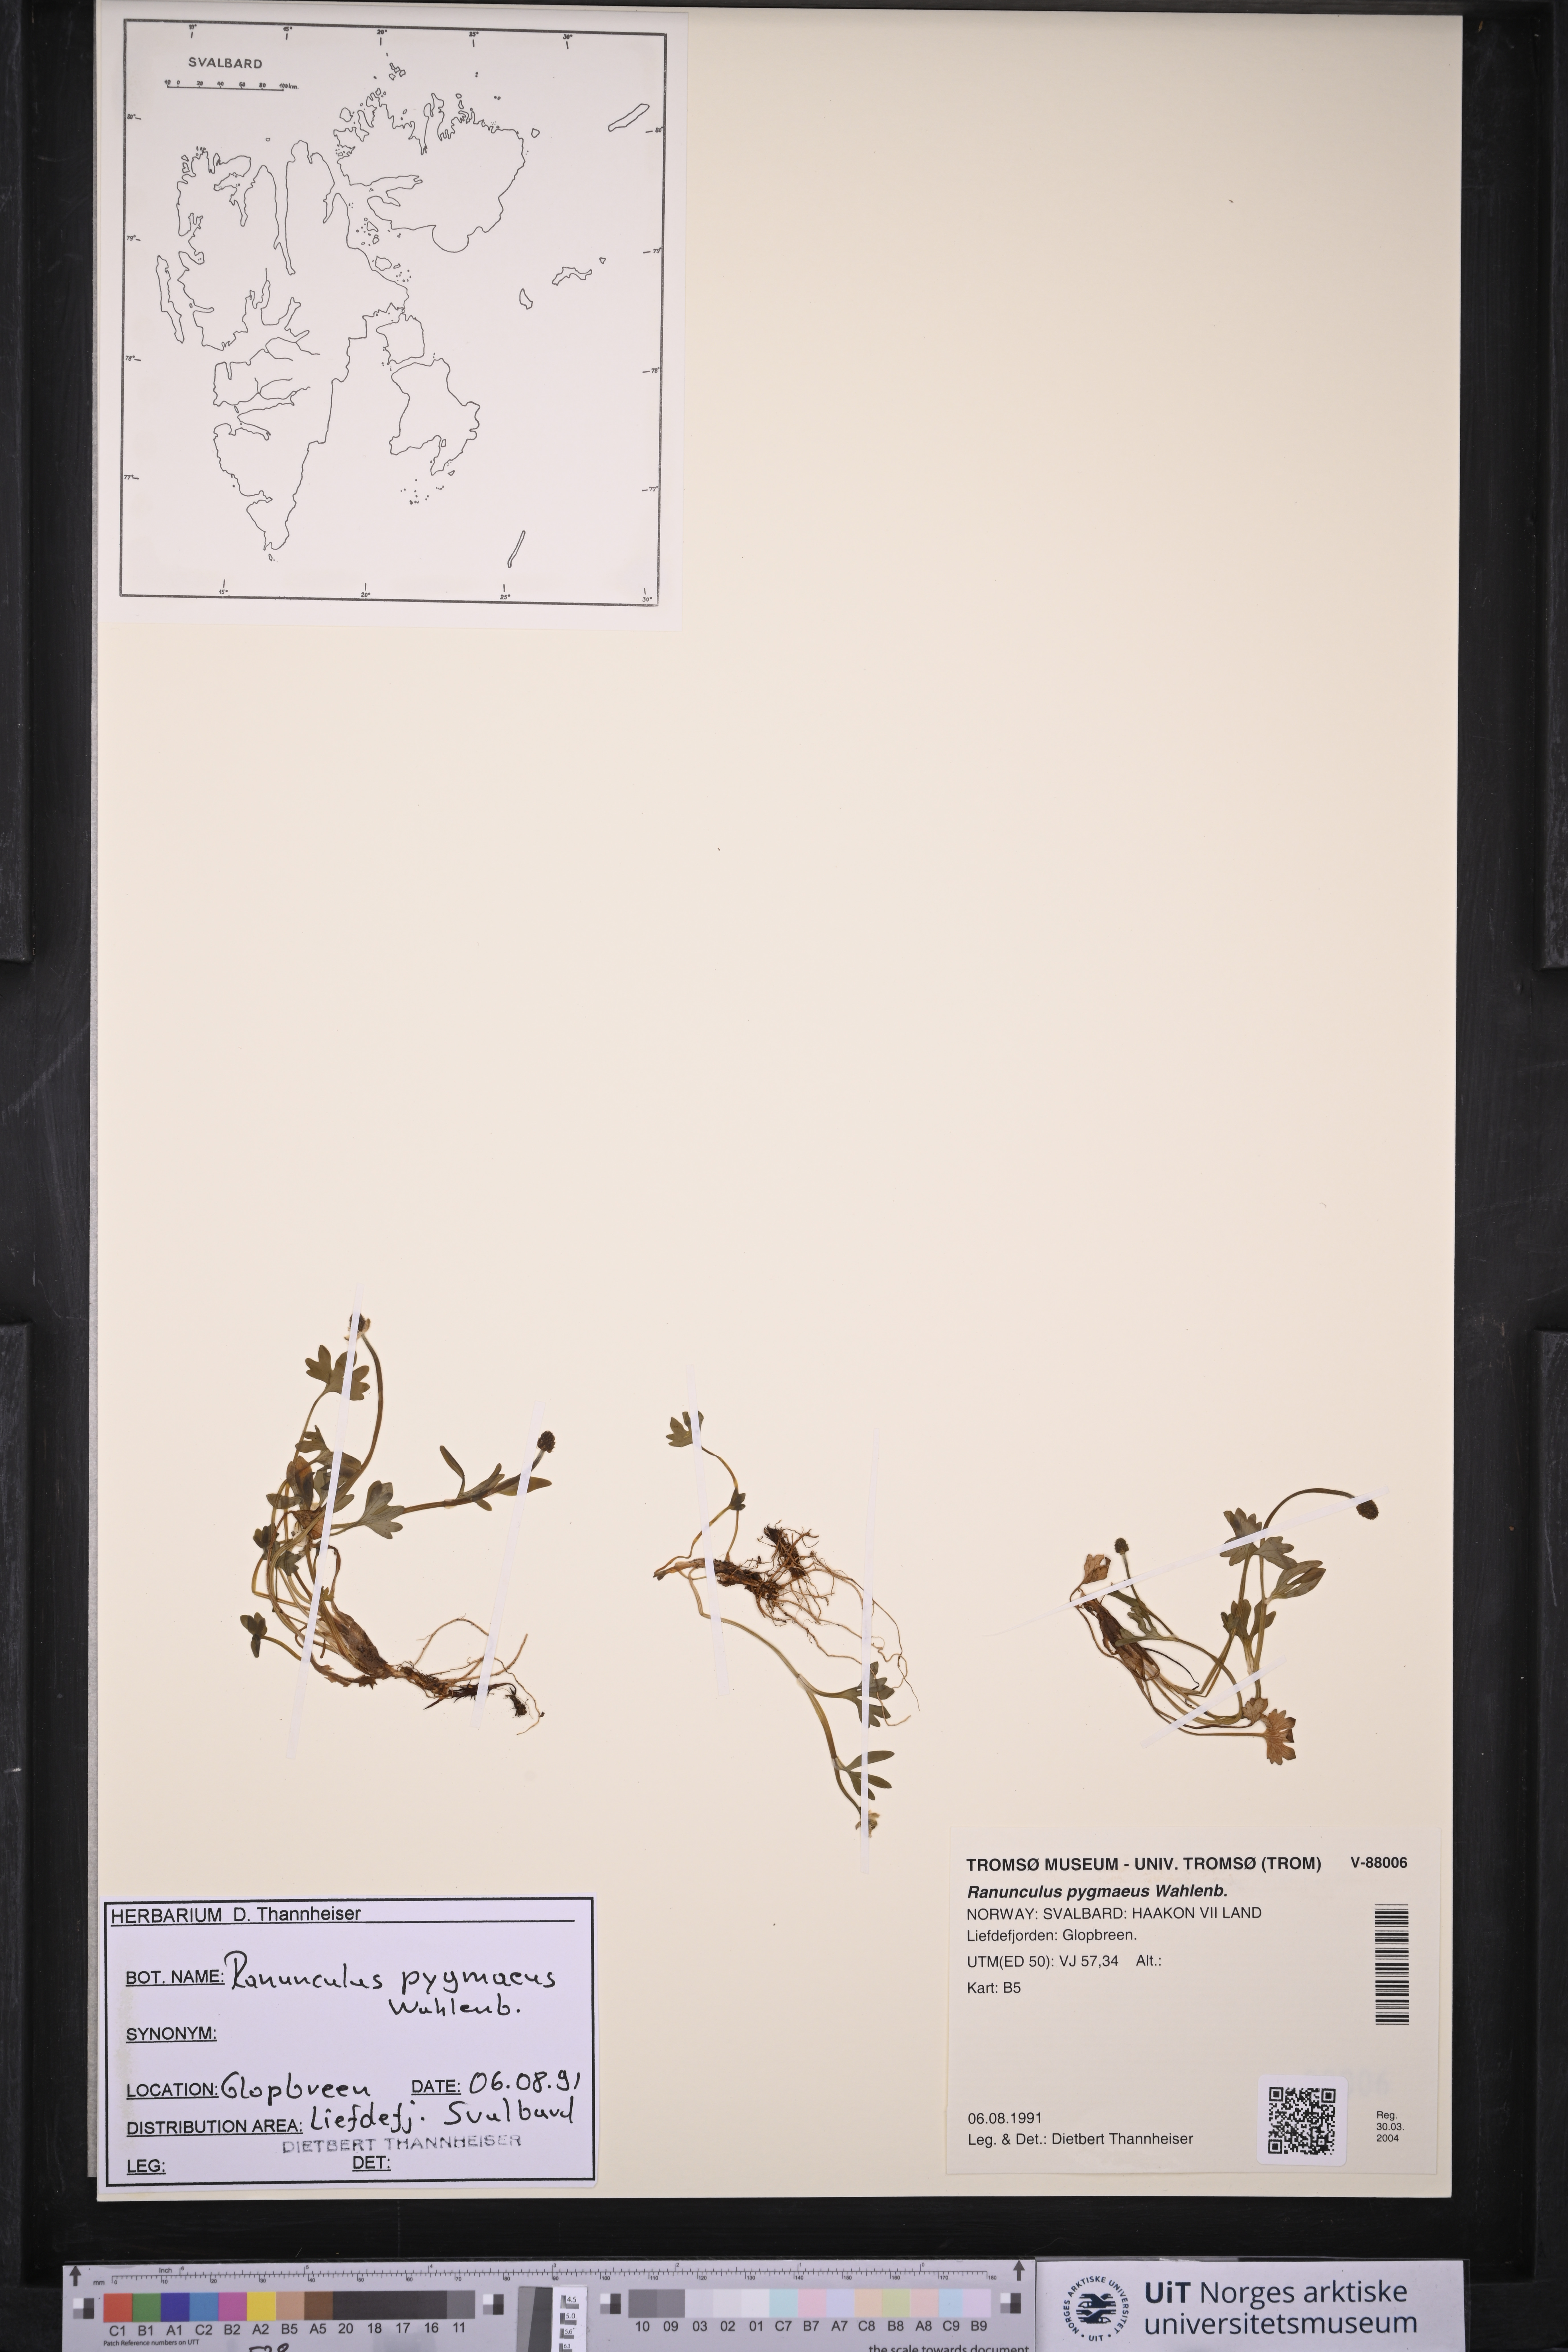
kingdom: Plantae
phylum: Tracheophyta
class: Magnoliopsida
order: Ranunculales
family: Ranunculaceae
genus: Ranunculus
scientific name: Ranunculus pygmaeus
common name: Dwarf buttercup
